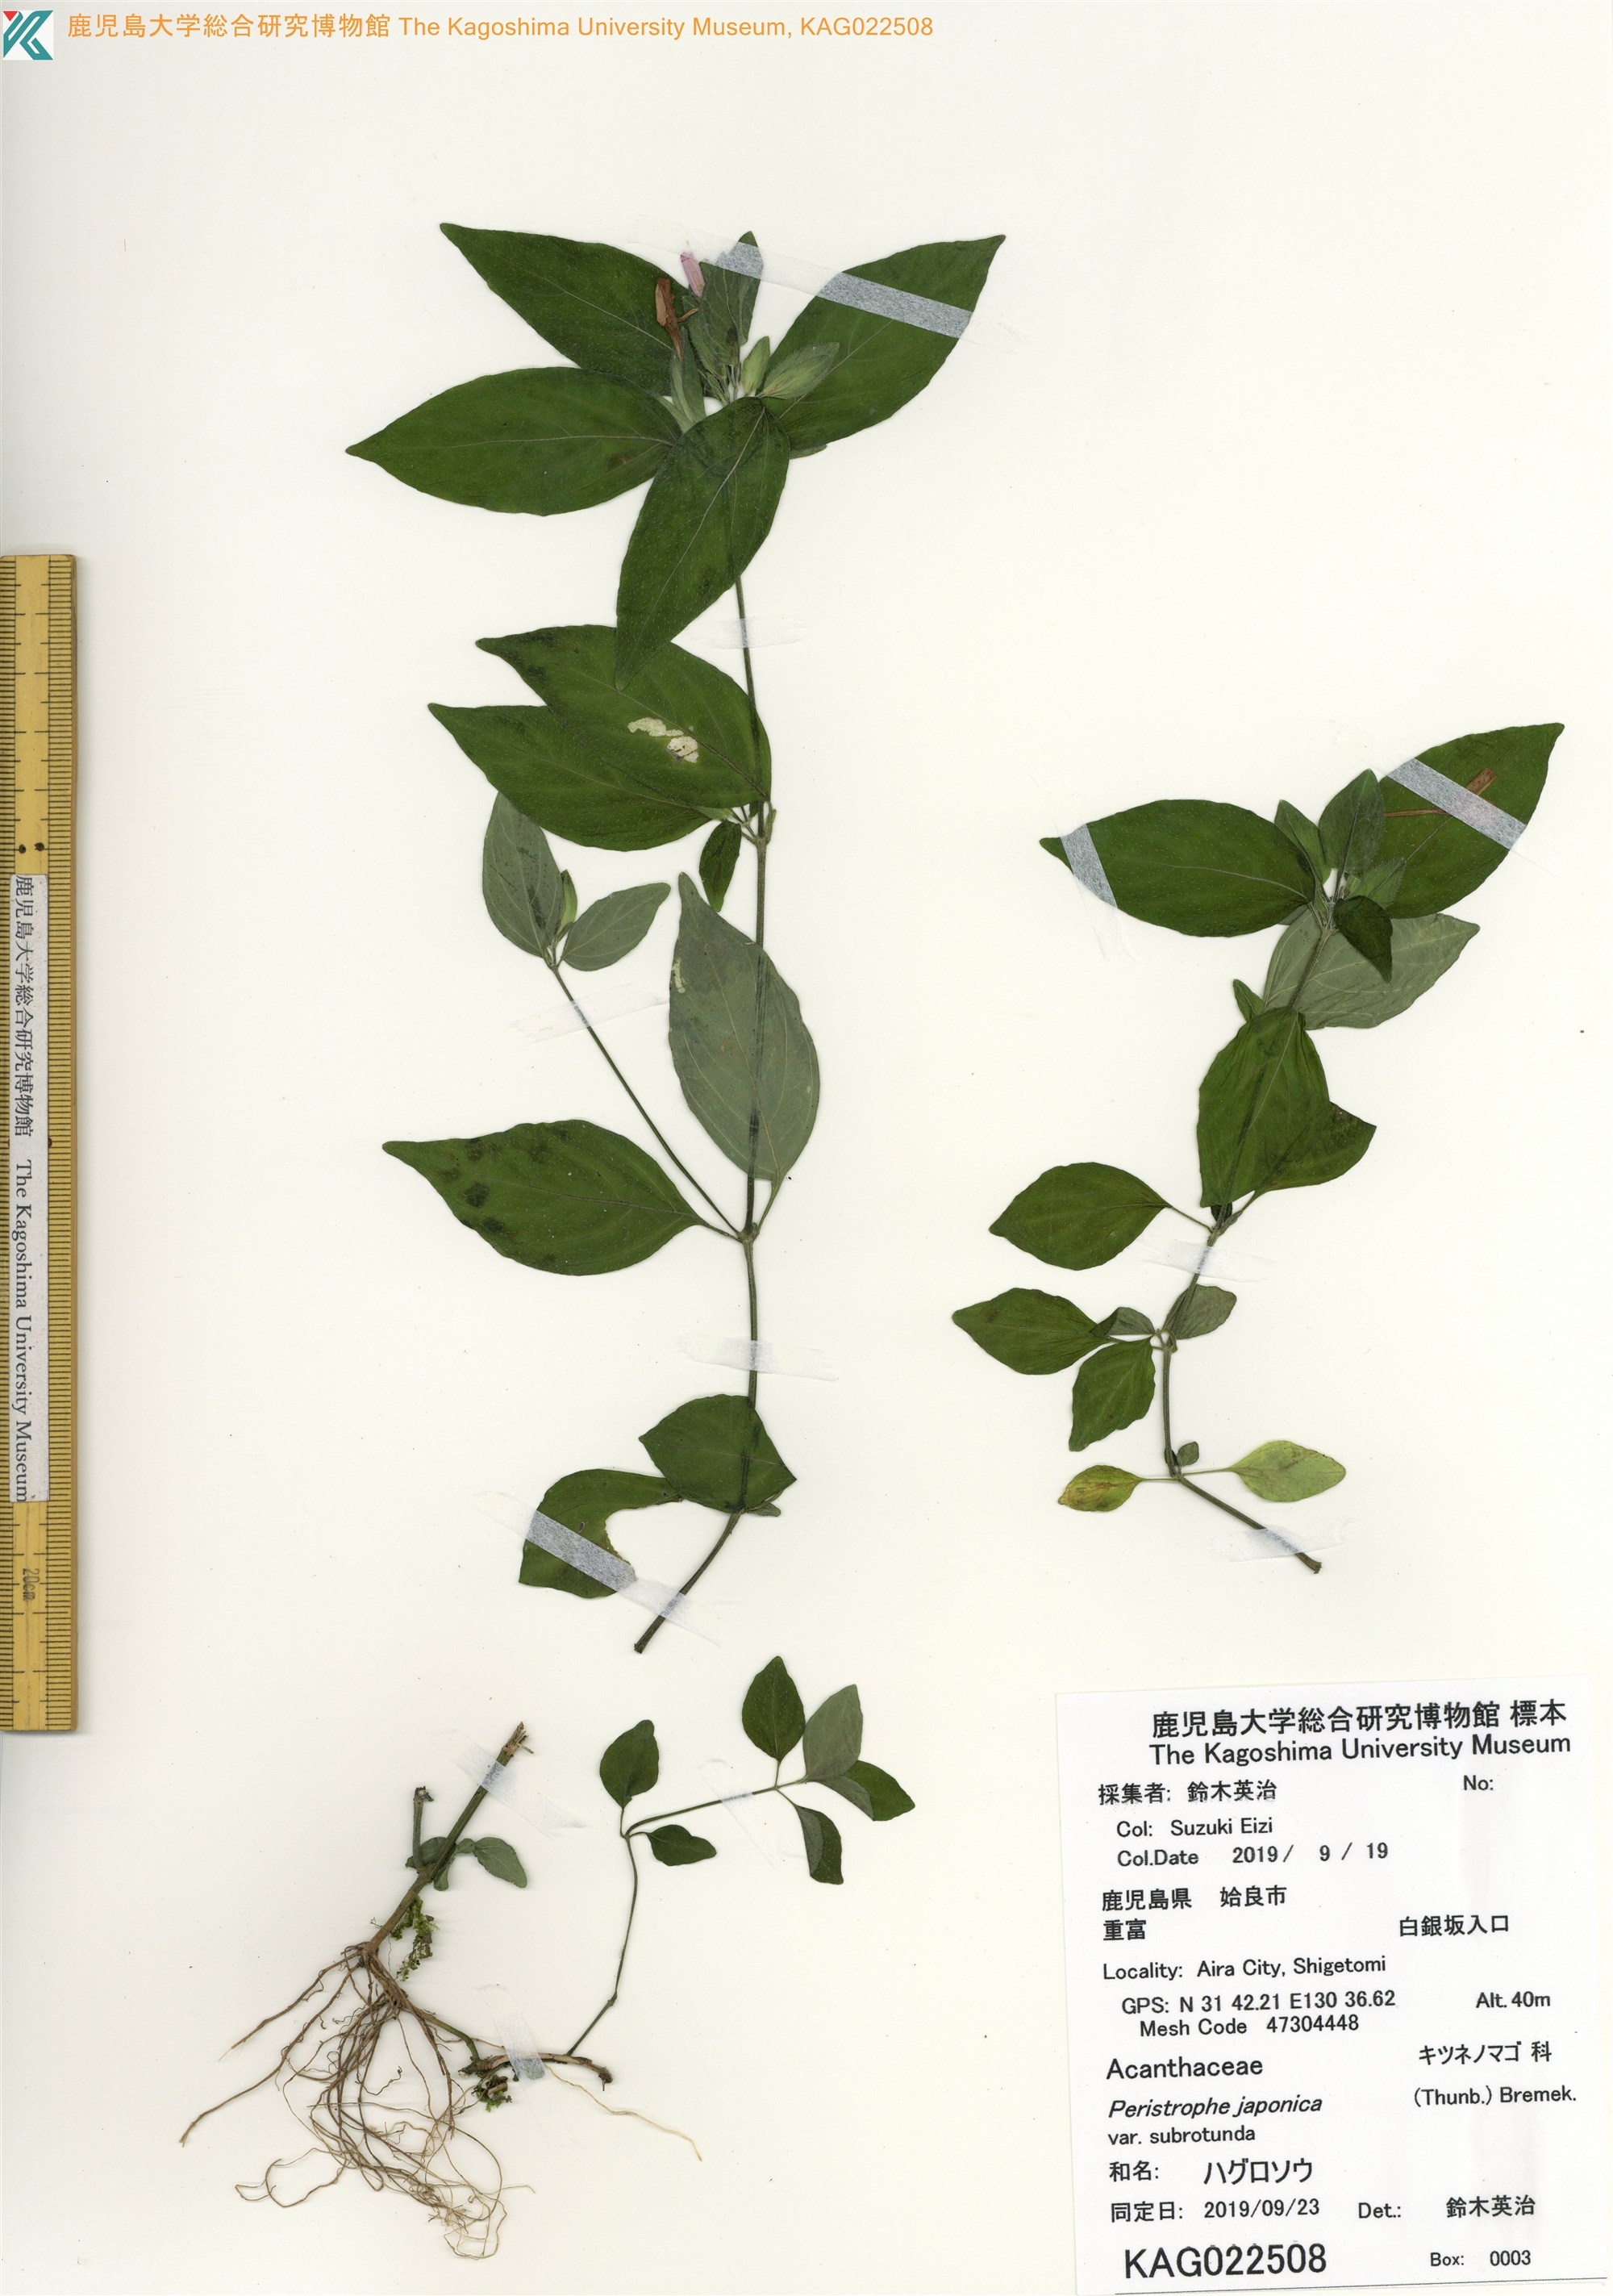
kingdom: Plantae
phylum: Tracheophyta
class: Magnoliopsida
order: Lamiales
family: Acanthaceae
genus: Dicliptera
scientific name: Dicliptera japonica
